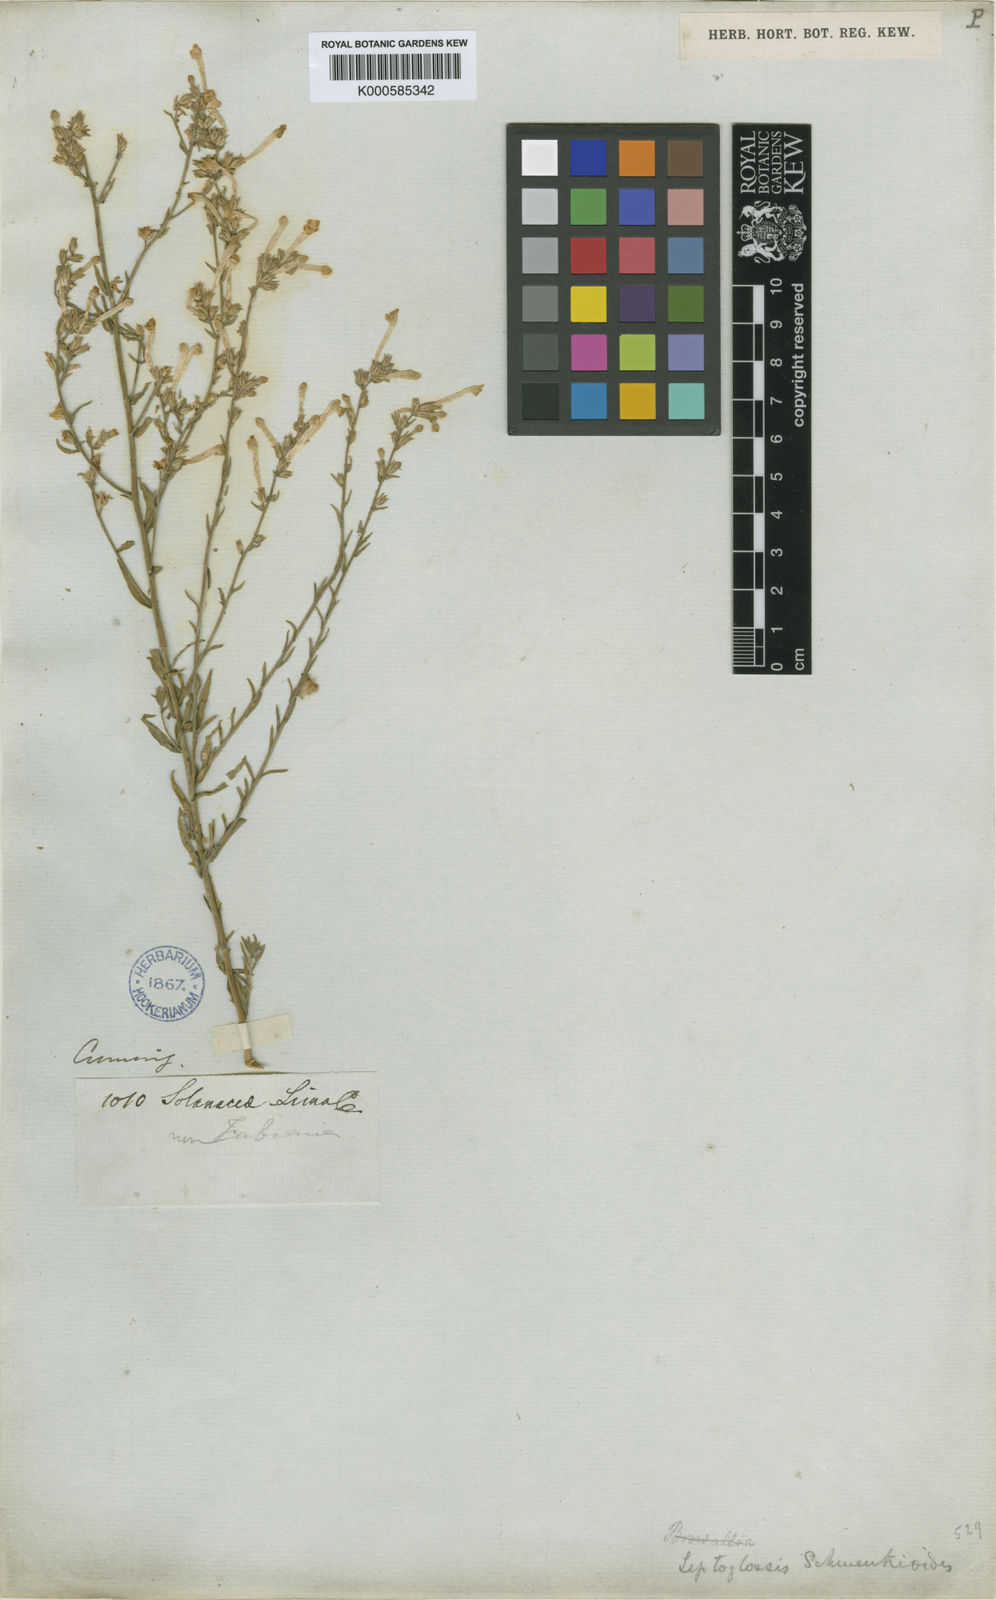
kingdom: Plantae
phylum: Tracheophyta
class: Magnoliopsida
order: Solanales
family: Solanaceae
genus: Leptoglossis
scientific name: Leptoglossis
